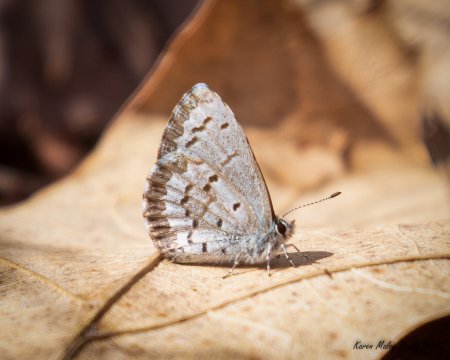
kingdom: Animalia
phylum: Arthropoda
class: Insecta
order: Lepidoptera
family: Lycaenidae
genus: Celastrina
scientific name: Celastrina lucia
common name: Northern Spring Azure
